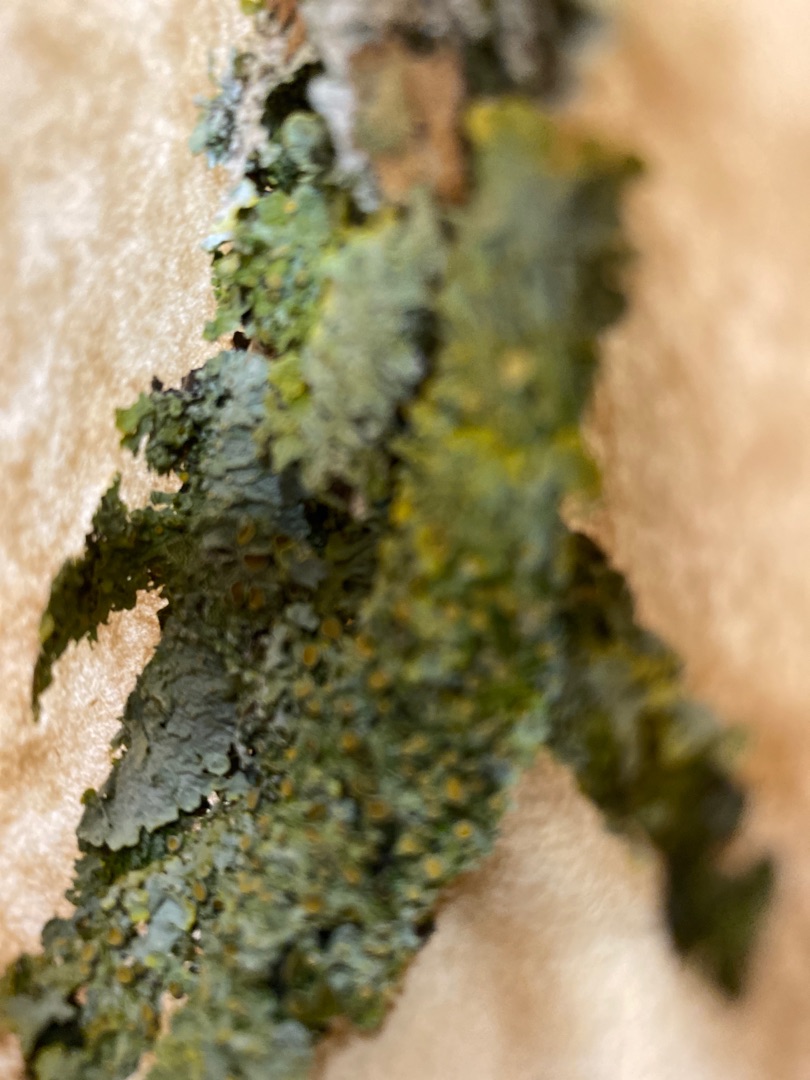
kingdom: Fungi
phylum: Ascomycota
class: Lecanoromycetes
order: Teloschistales
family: Teloschistaceae
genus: Xanthoria
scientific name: Xanthoria parietina
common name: Almindelig væggelav
